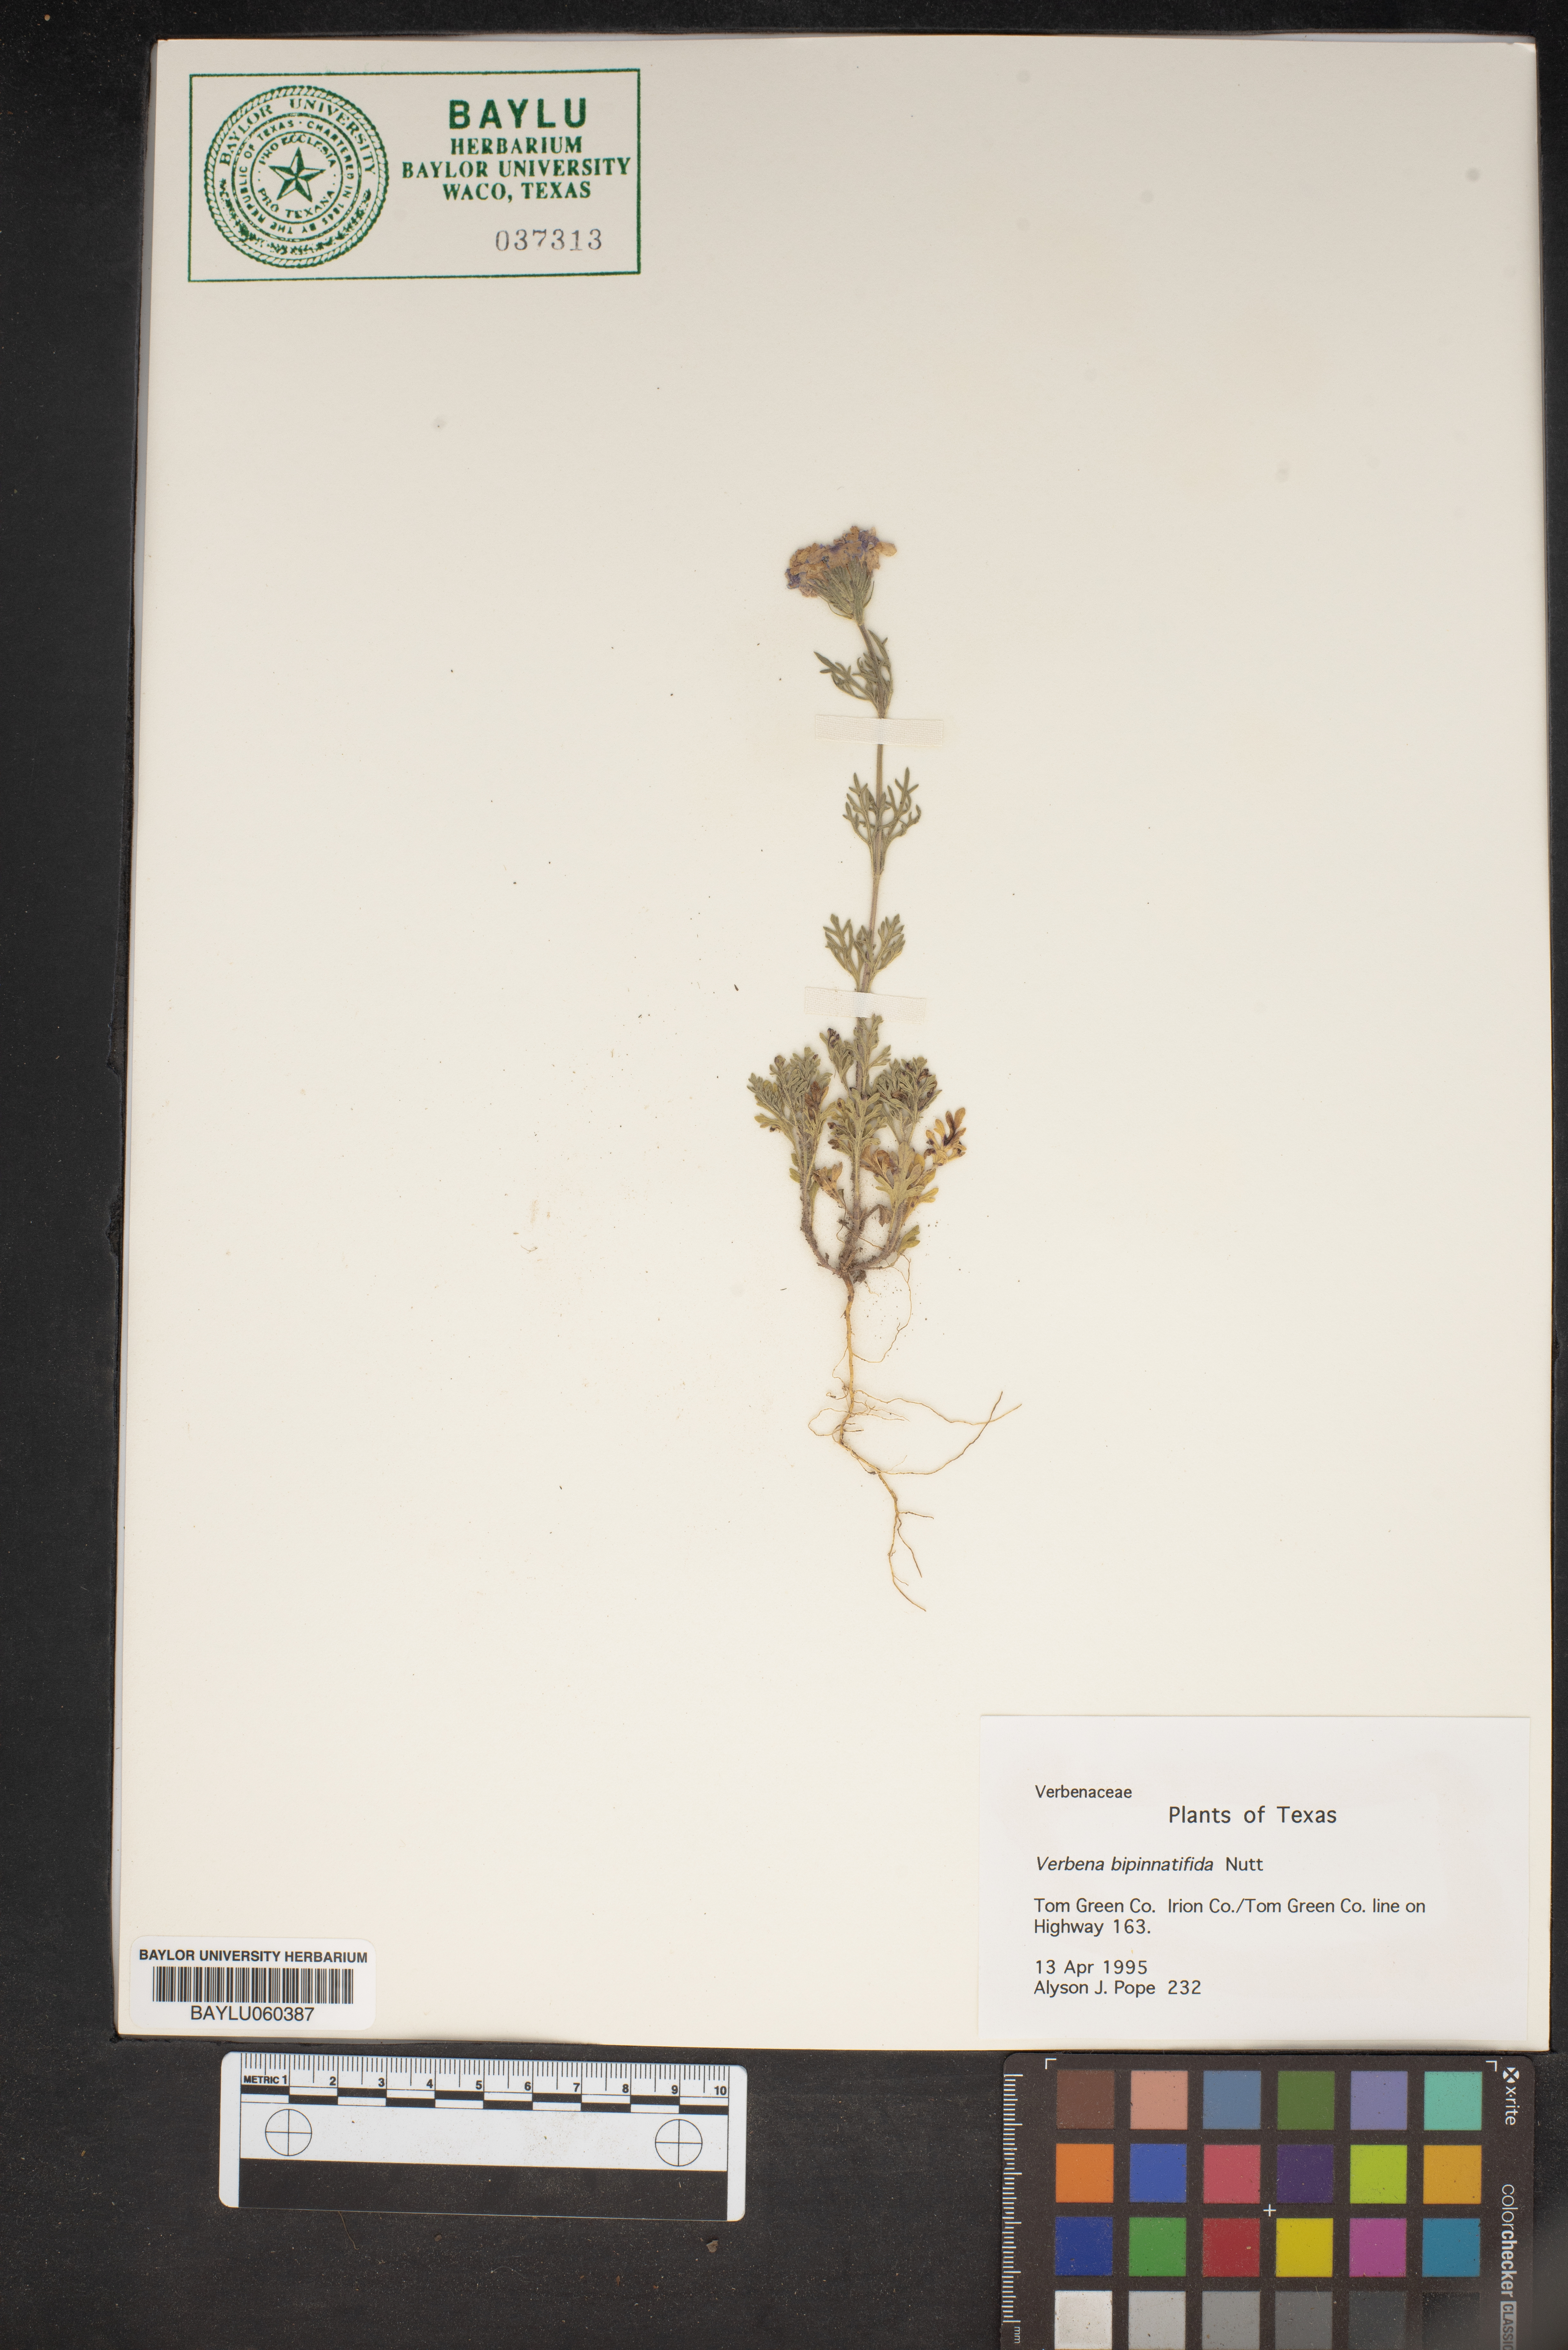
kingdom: Plantae
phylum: Tracheophyta
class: Magnoliopsida
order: Lamiales
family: Verbenaceae
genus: Verbena
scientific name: Verbena bipinnatifida
